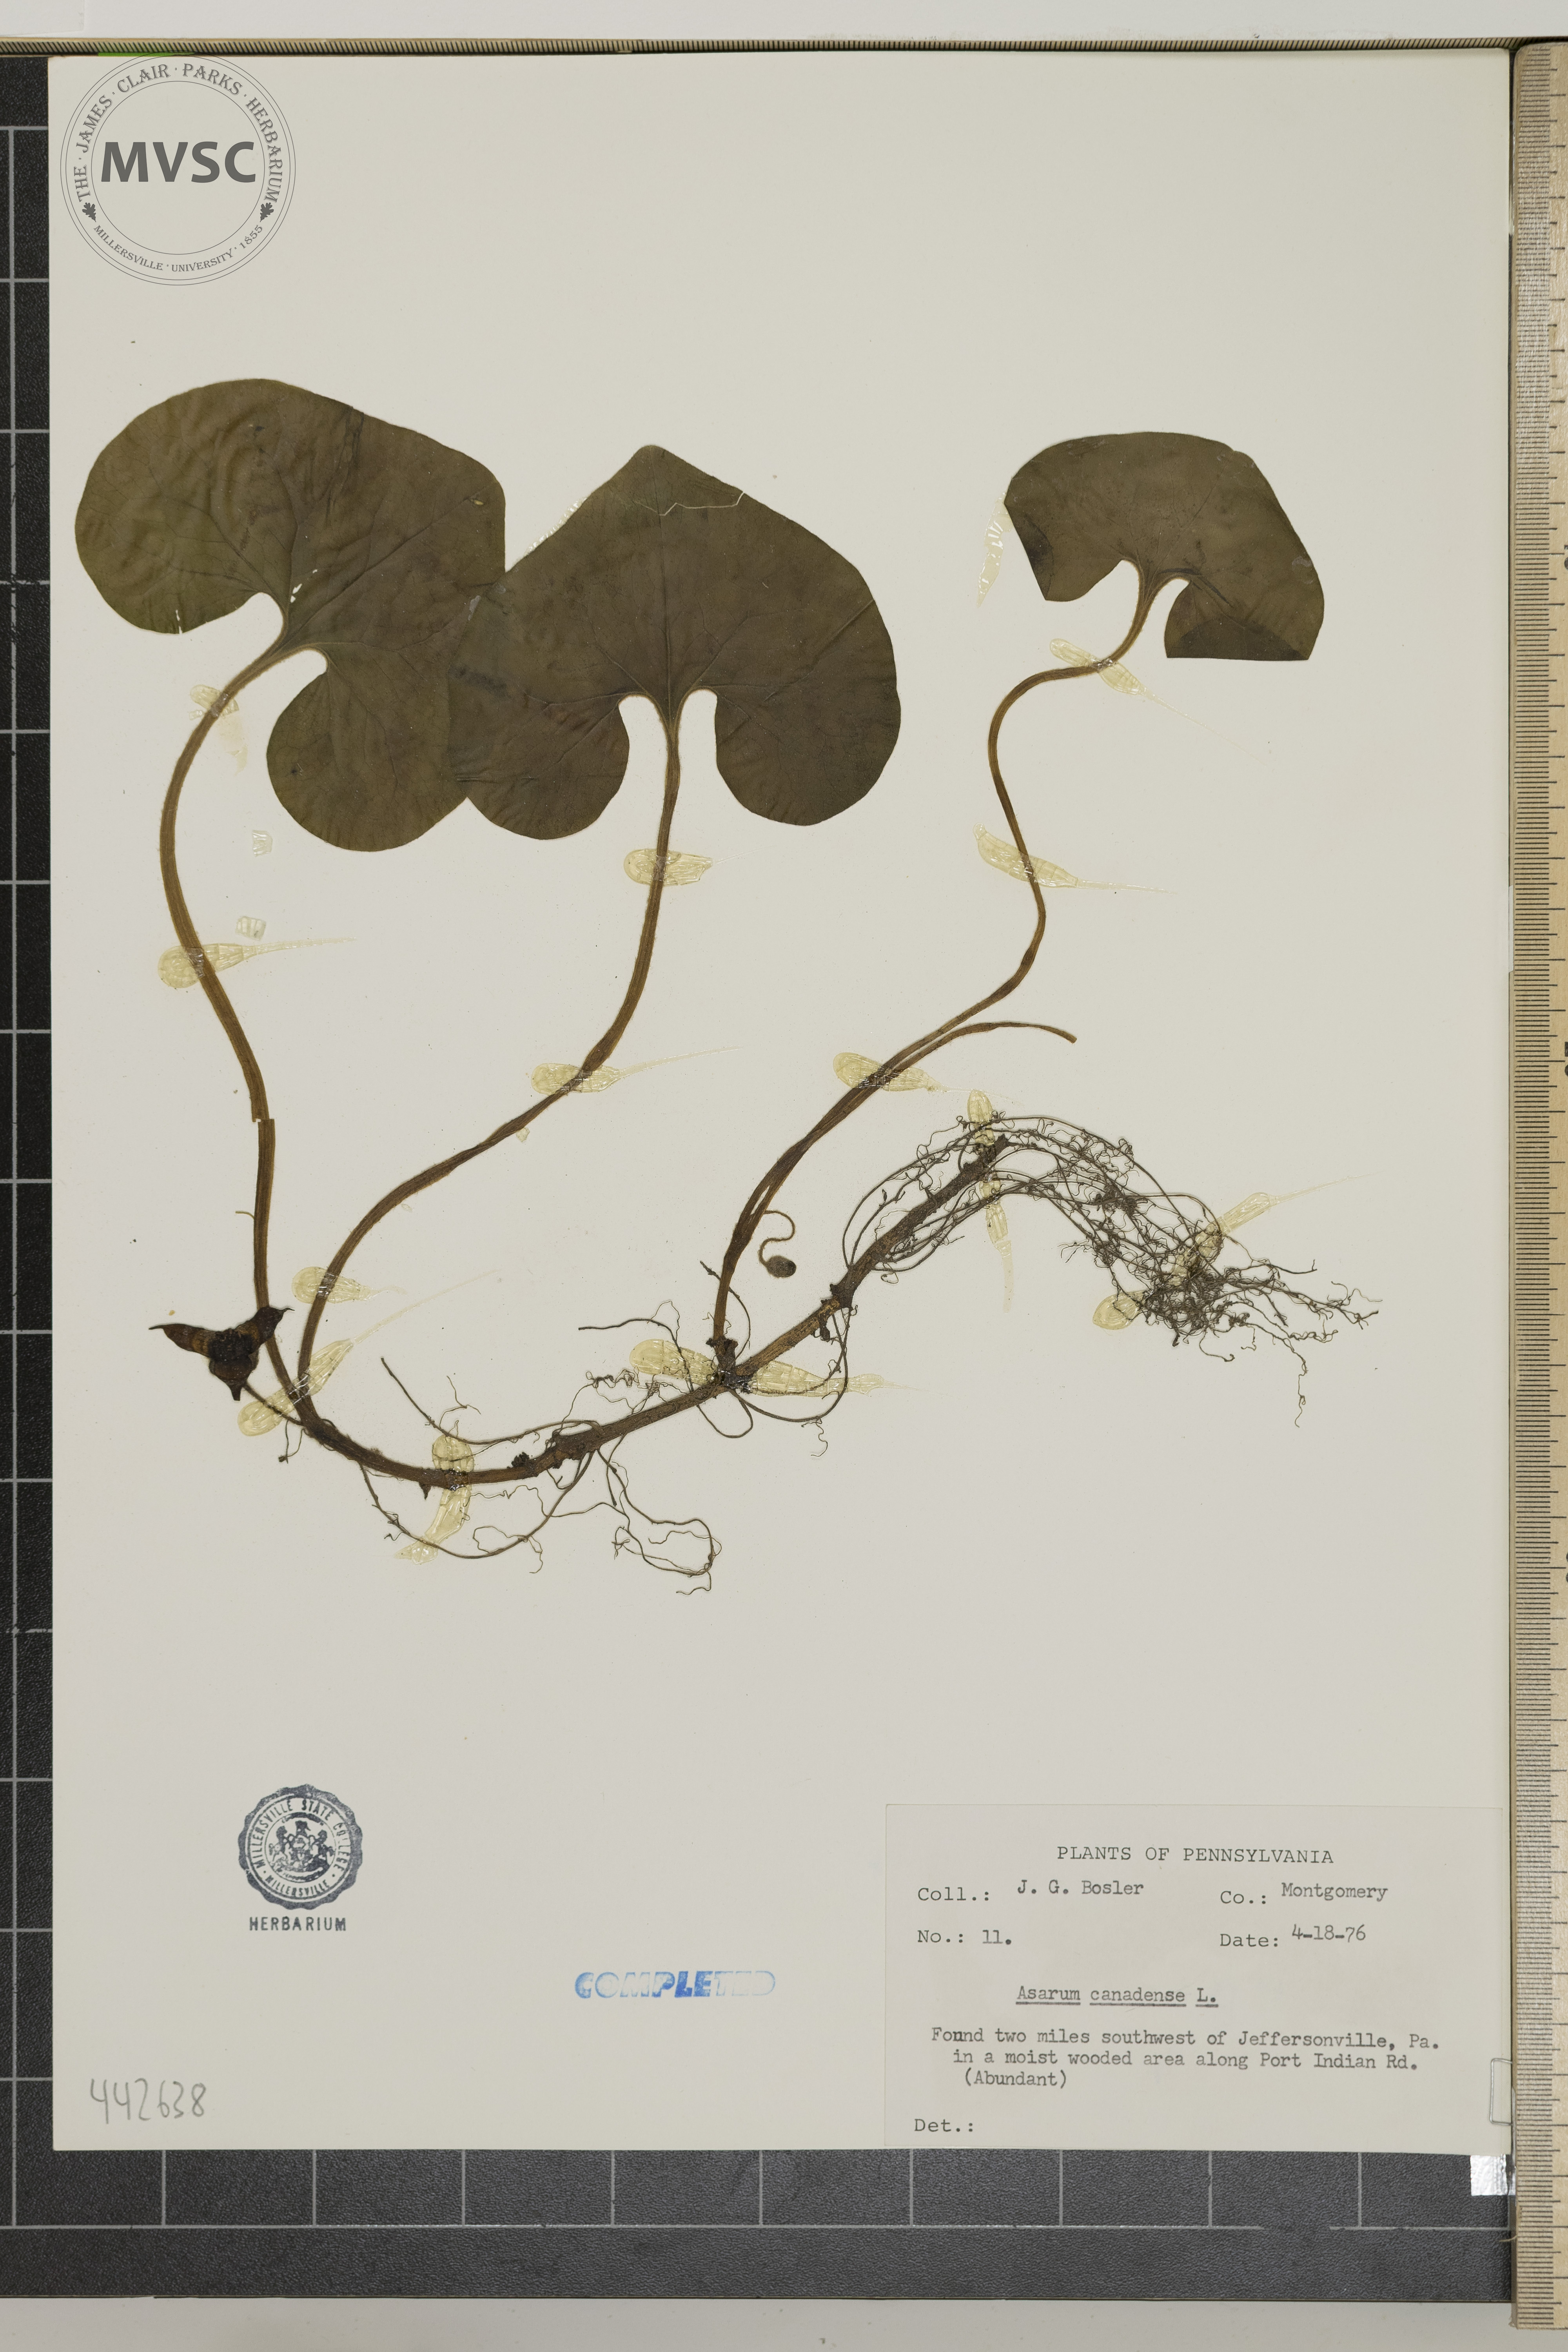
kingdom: Plantae
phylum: Tracheophyta
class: Magnoliopsida
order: Piperales
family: Aristolochiaceae
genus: Asarum
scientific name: Asarum canadense
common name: Wild ginger
